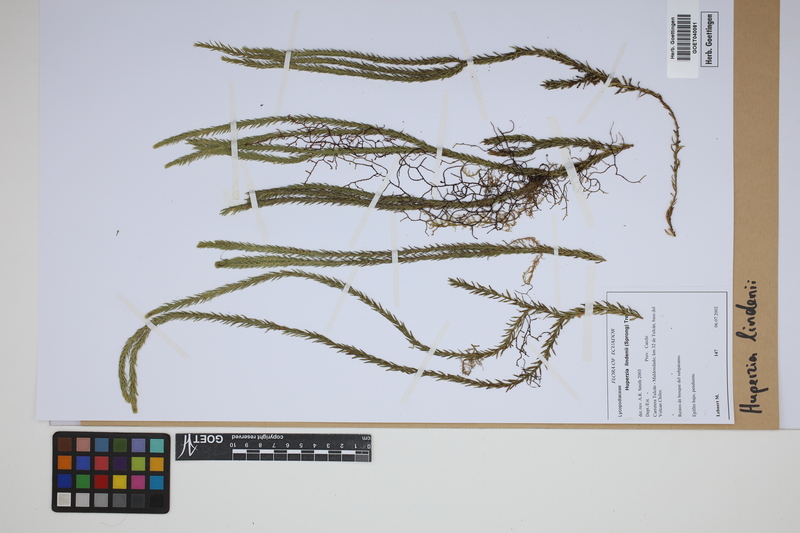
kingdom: Plantae
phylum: Tracheophyta
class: Lycopodiopsida
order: Lycopodiales
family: Lycopodiaceae
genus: Phlegmariurus
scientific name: Phlegmariurus lindenii
